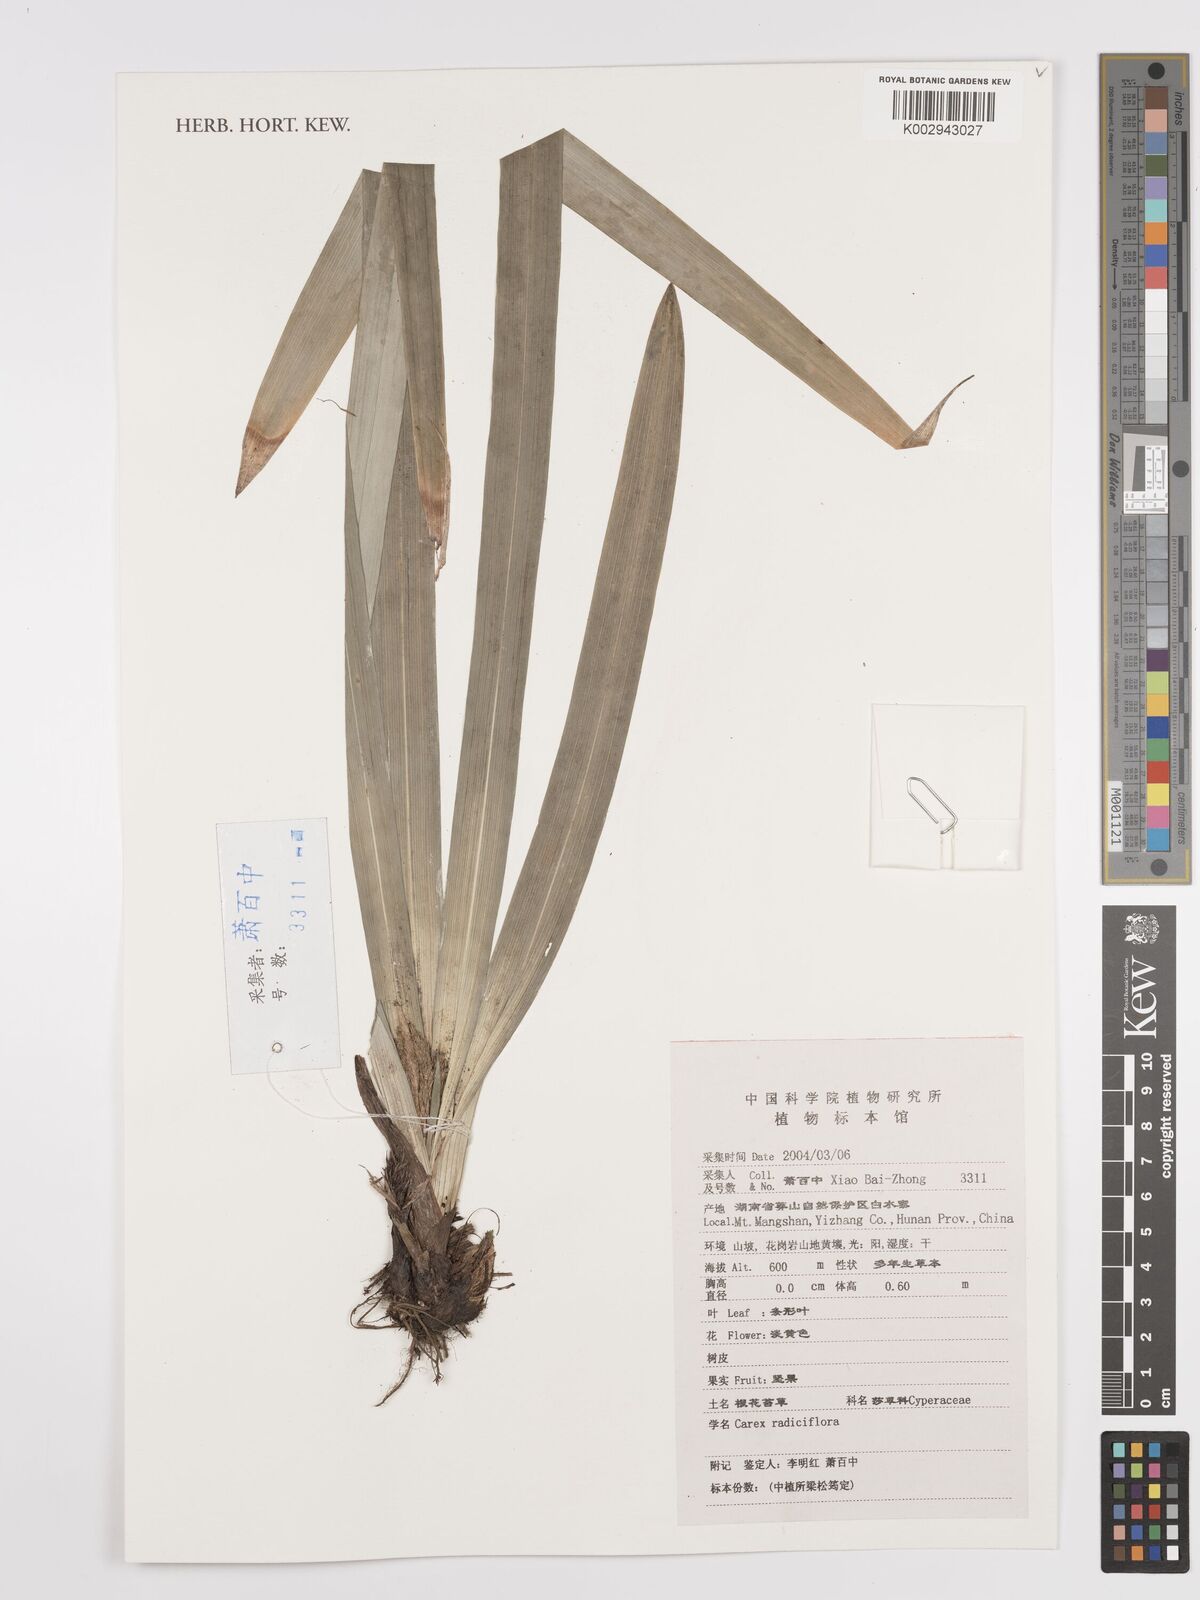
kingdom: Plantae
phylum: Tracheophyta
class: Liliopsida
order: Poales
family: Cyperaceae
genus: Carex
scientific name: Carex radiciflora
